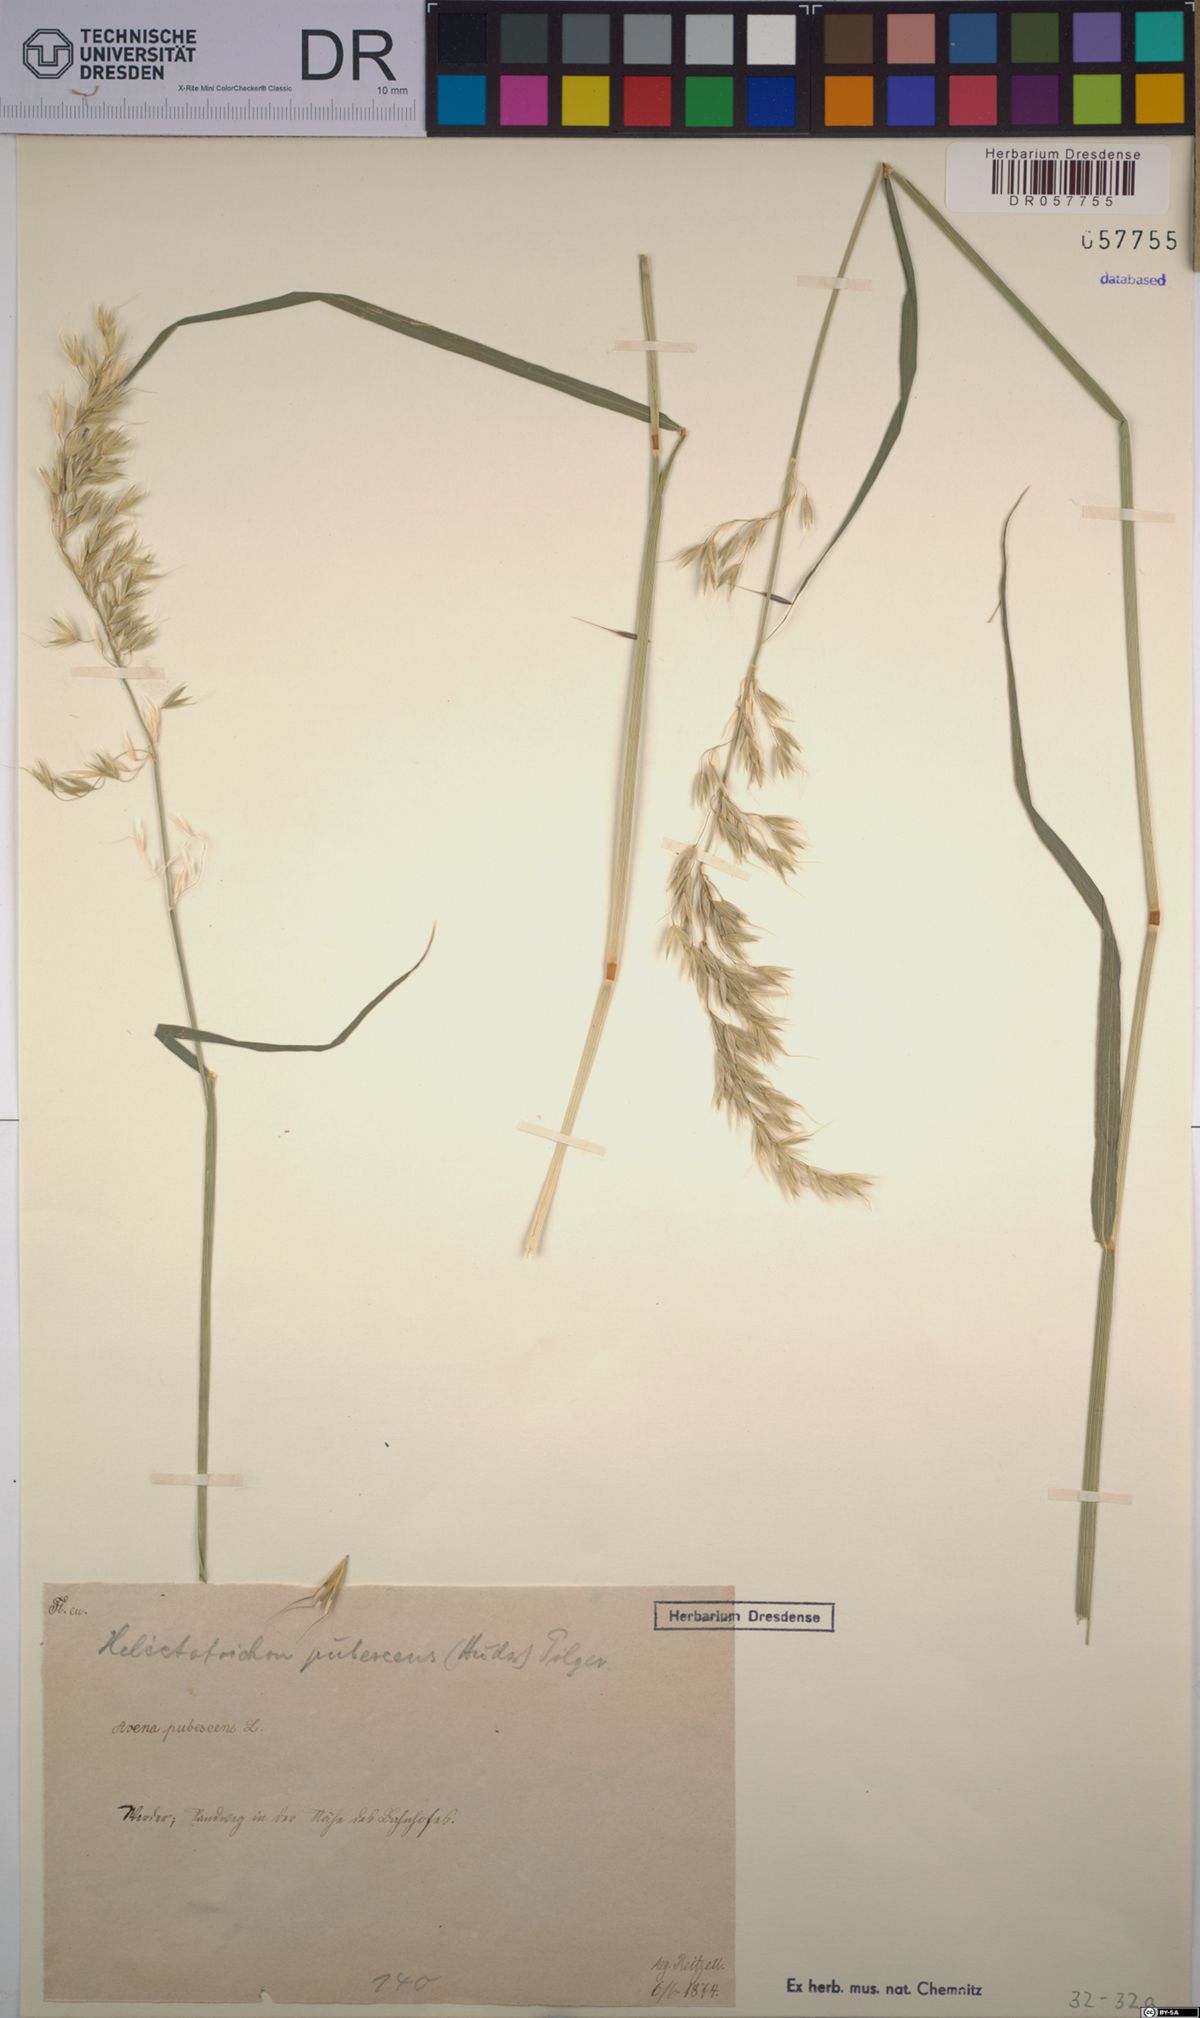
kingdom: Plantae
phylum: Tracheophyta
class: Liliopsida
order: Poales
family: Poaceae
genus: Avenula
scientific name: Avenula pubescens
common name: Downy alpine oatgrass
